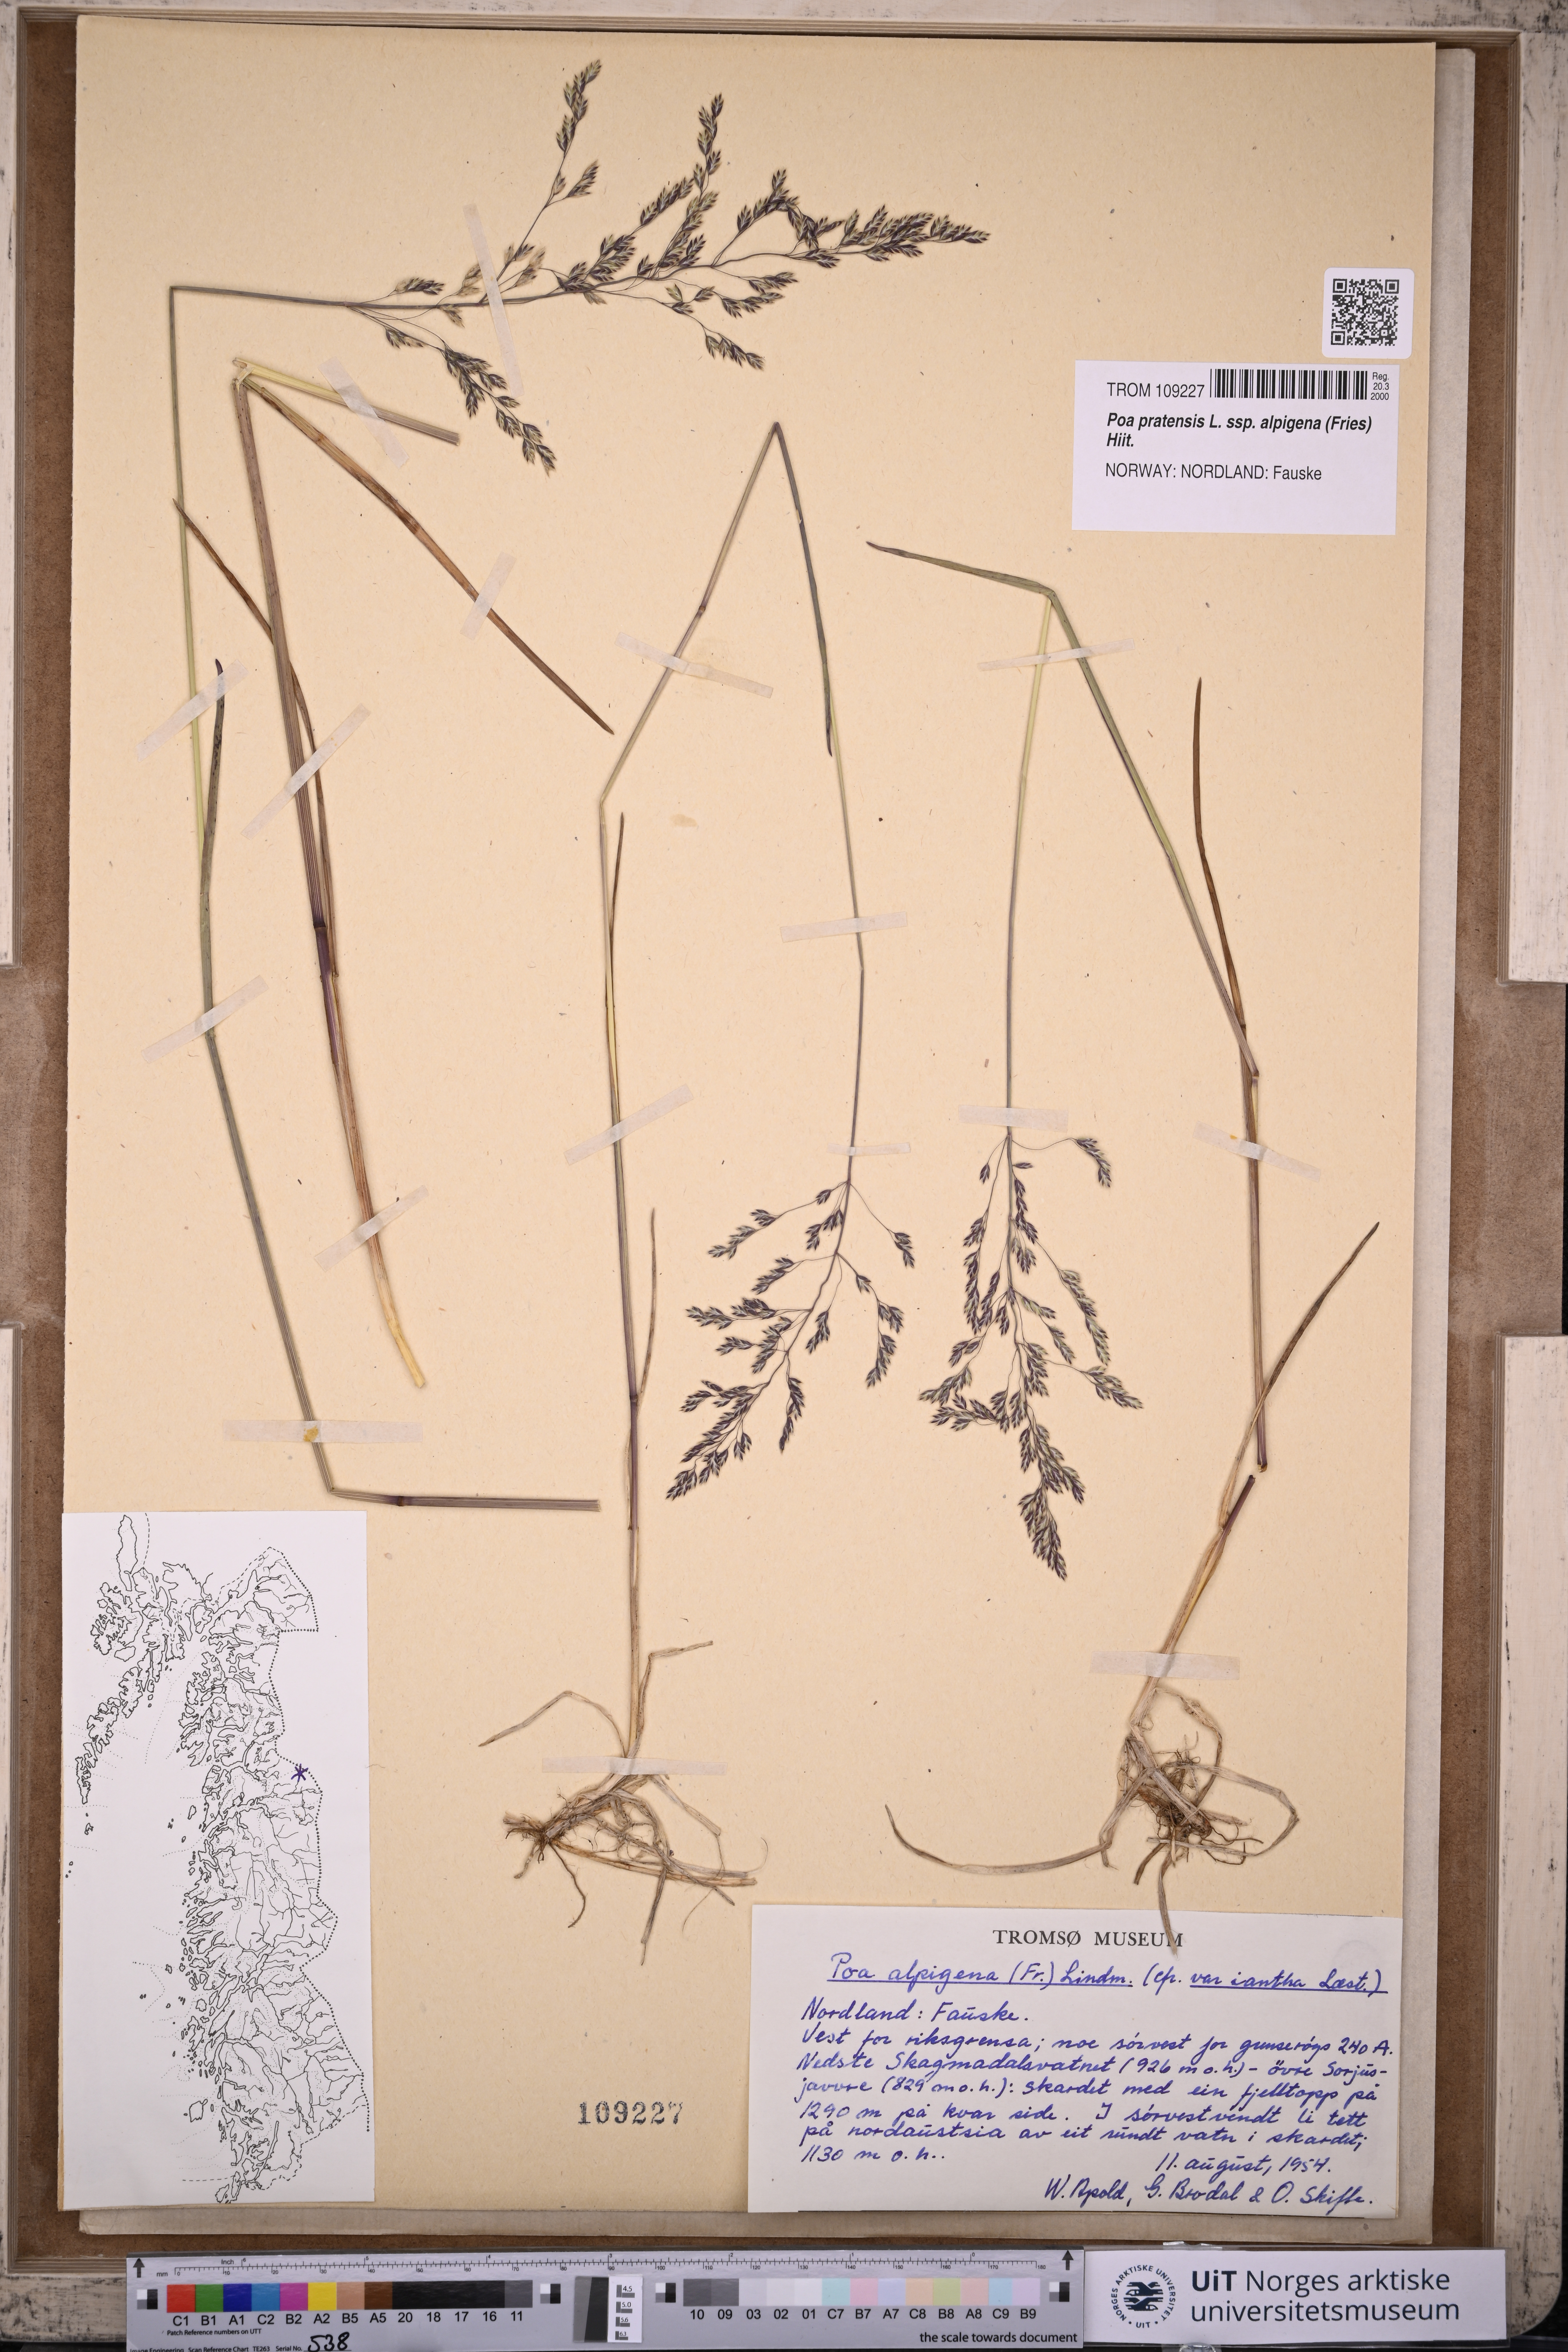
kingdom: Plantae
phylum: Tracheophyta
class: Liliopsida
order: Poales
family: Poaceae
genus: Poa
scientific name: Poa alpigena
